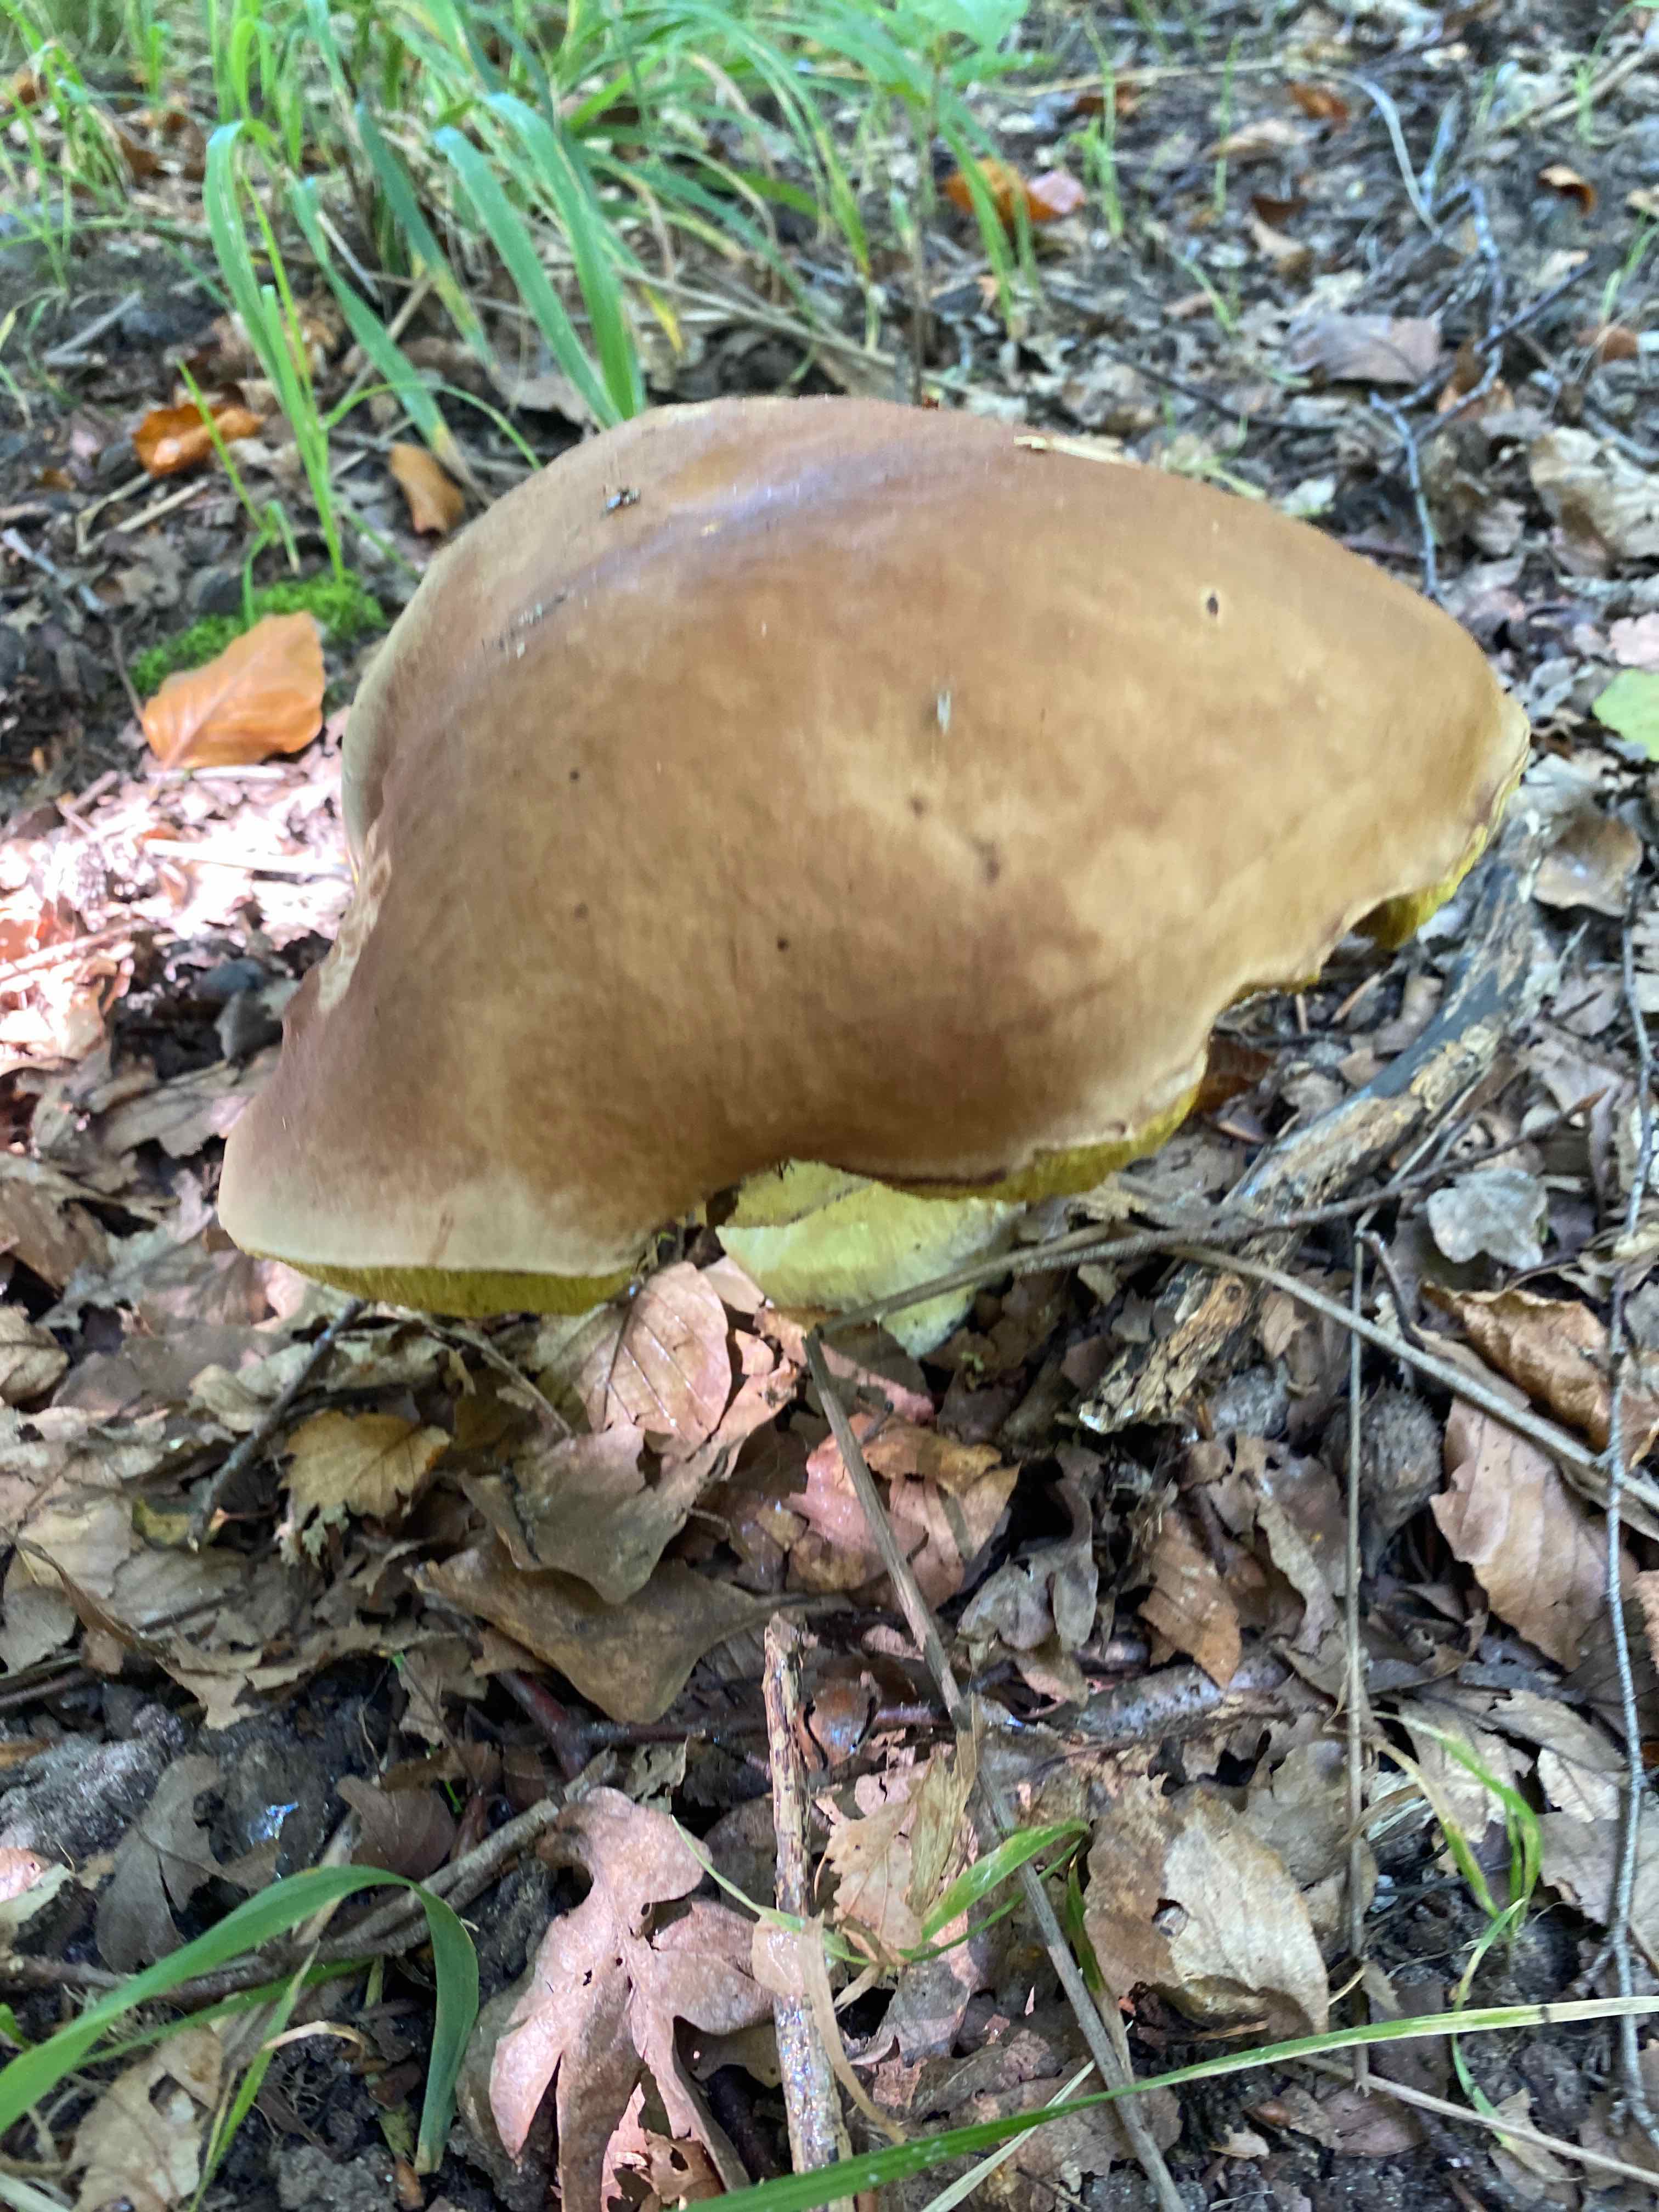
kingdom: Fungi
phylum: Basidiomycota
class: Agaricomycetes
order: Boletales
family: Boletaceae
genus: Boletus
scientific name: Boletus edulis
